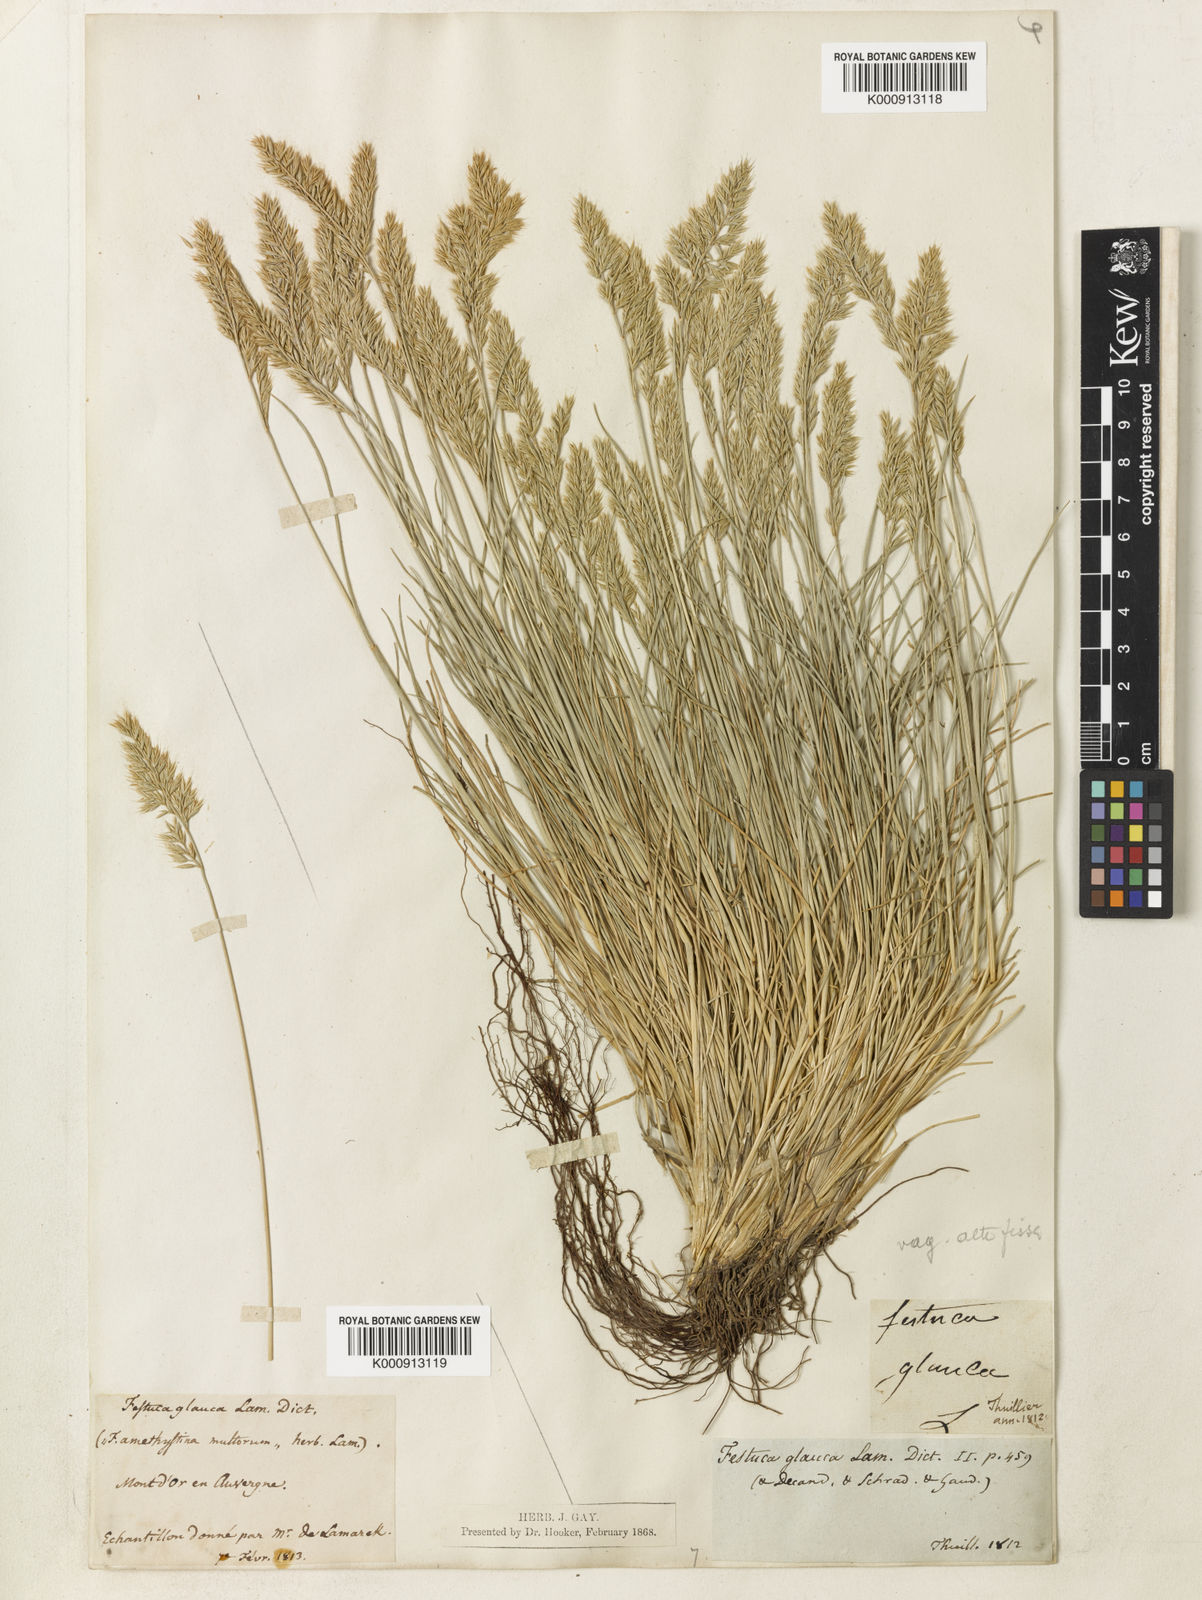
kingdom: Plantae
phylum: Tracheophyta
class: Liliopsida
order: Poales
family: Poaceae
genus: Festuca
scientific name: Festuca
